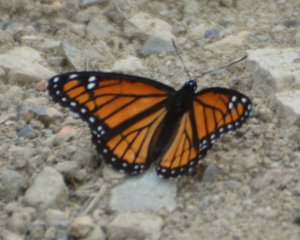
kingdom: Animalia
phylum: Arthropoda
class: Insecta
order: Lepidoptera
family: Nymphalidae
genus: Limenitis
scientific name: Limenitis archippus
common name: Viceroy
